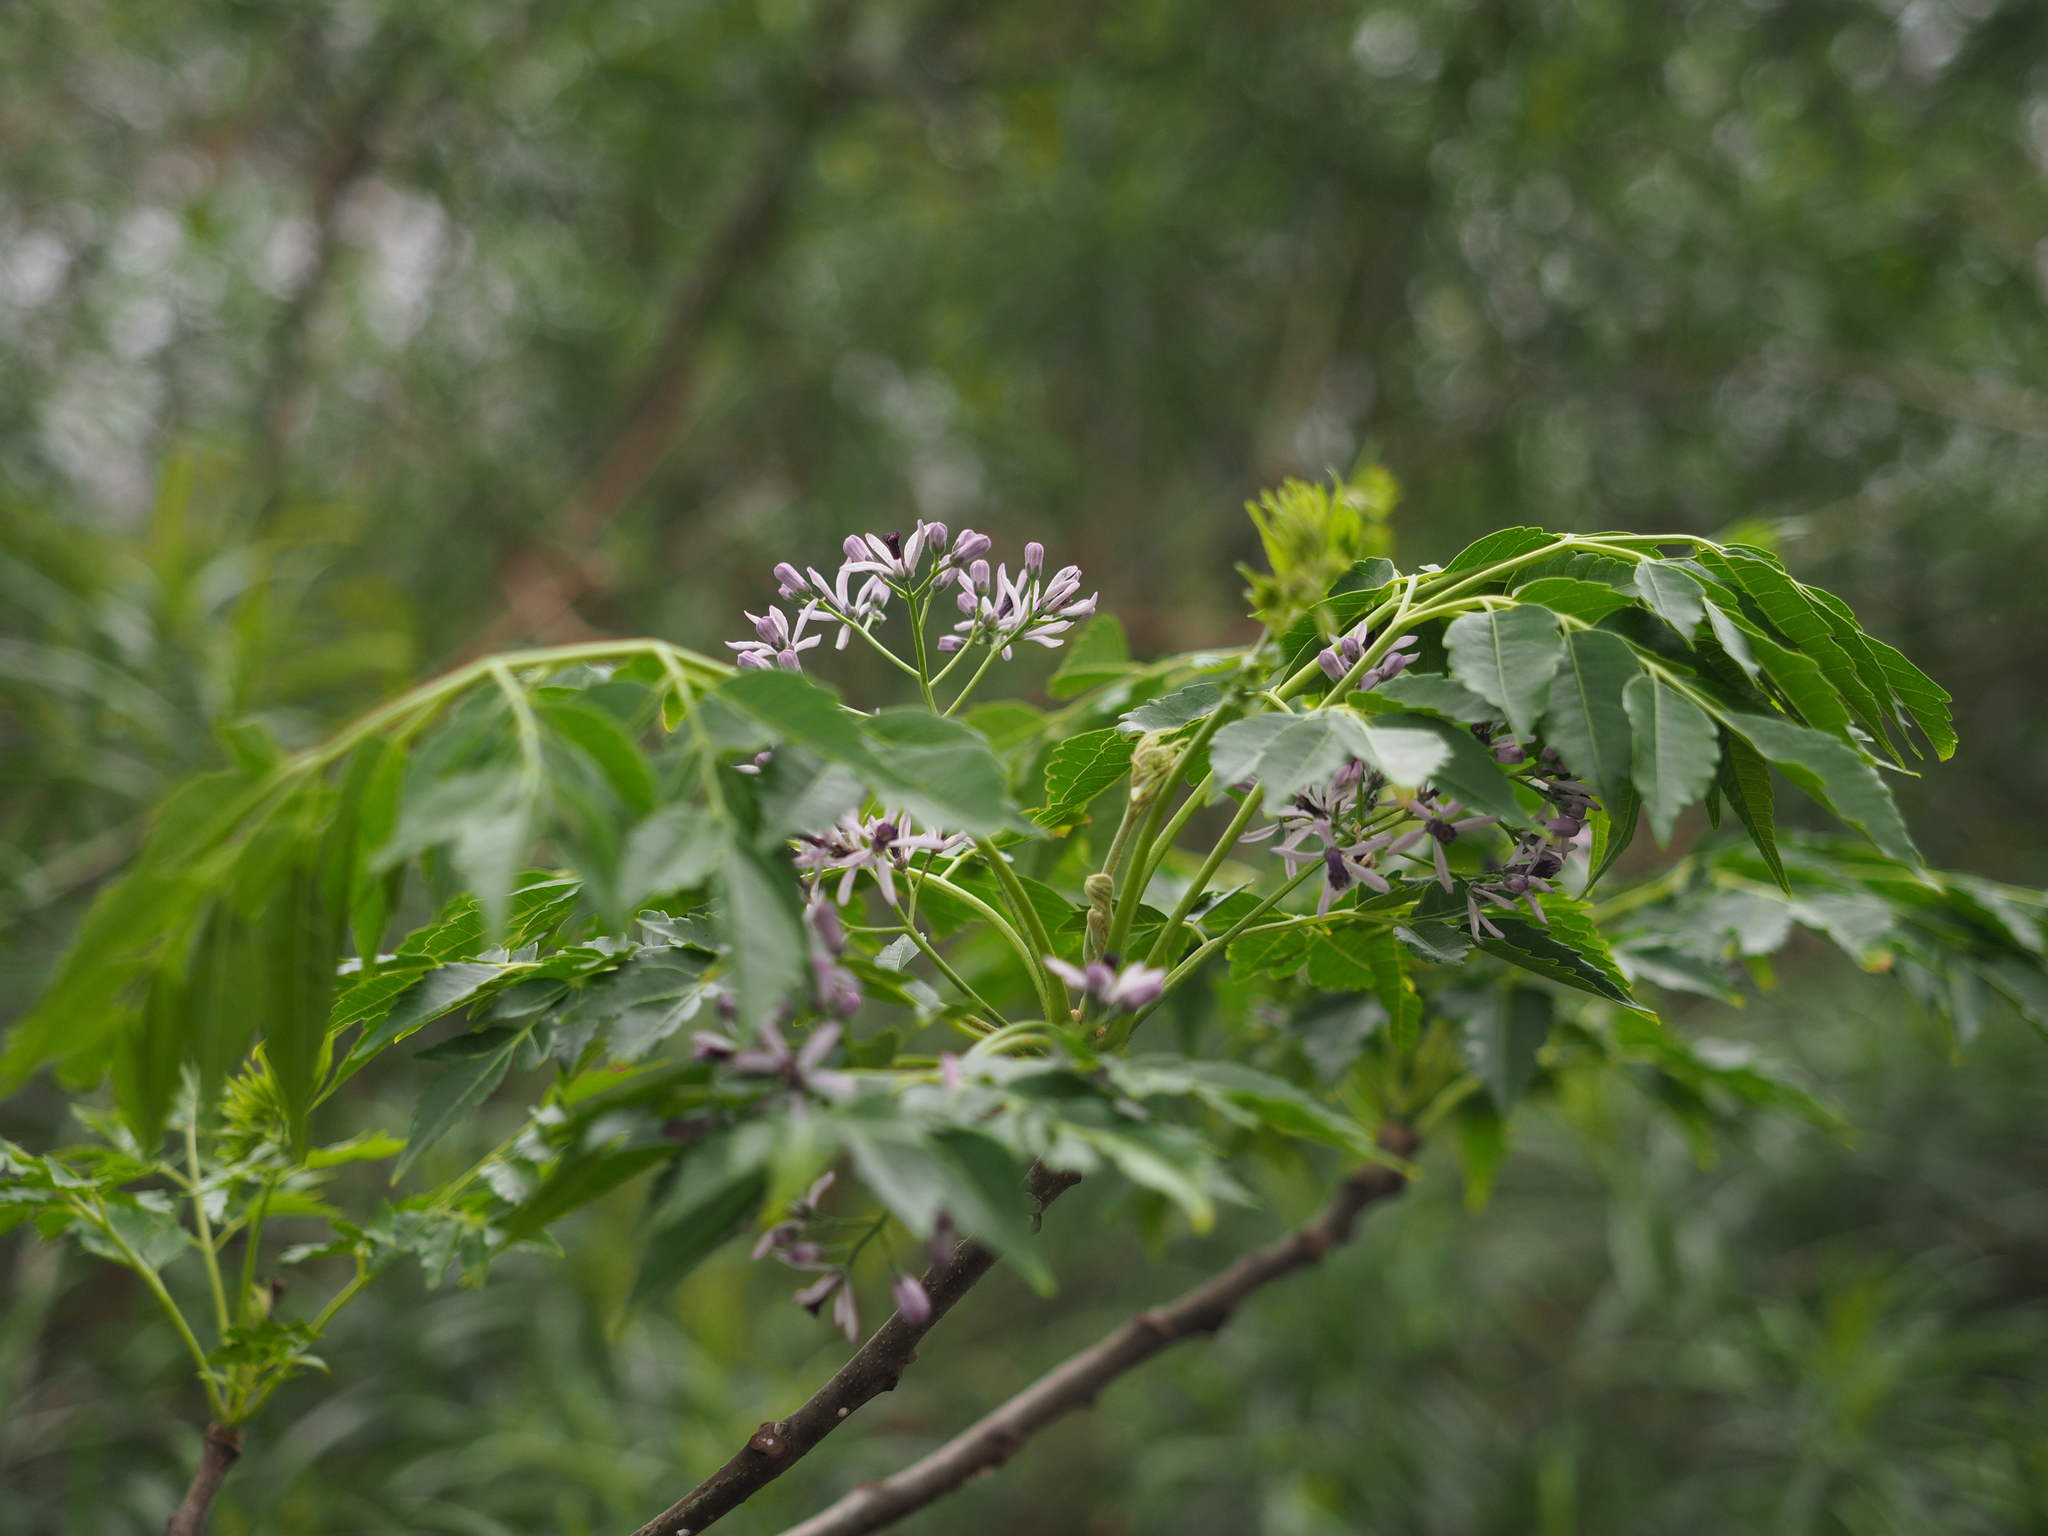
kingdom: Plantae
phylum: Tracheophyta
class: Magnoliopsida
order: Sapindales
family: Meliaceae
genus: Melia
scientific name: Melia azedarach
